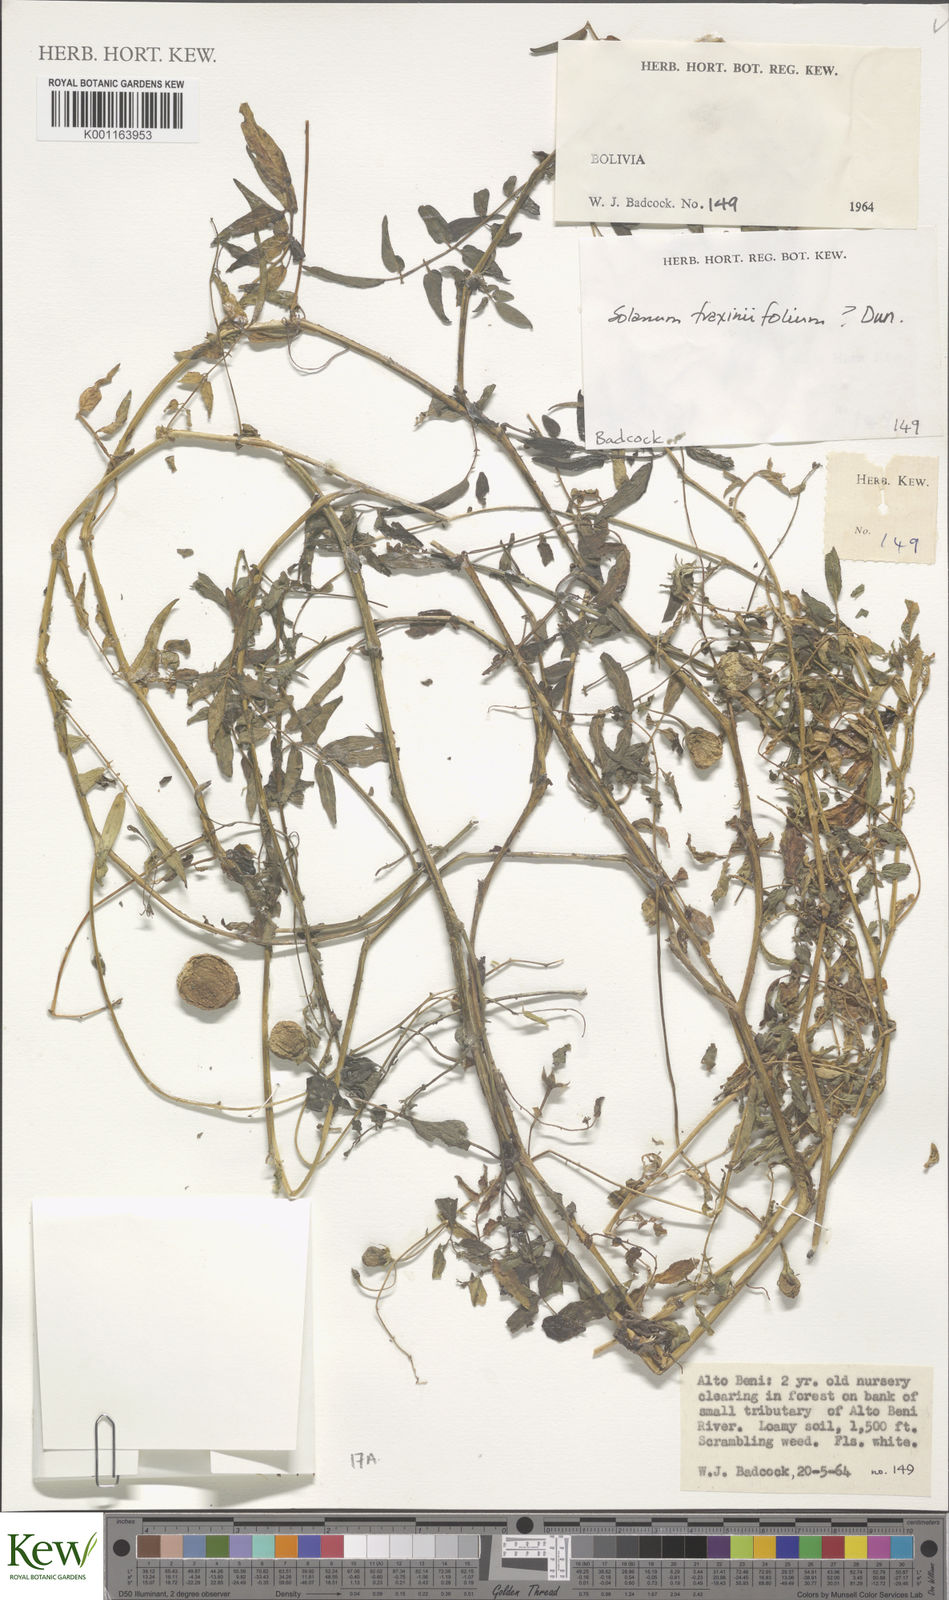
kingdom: Plantae
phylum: Tracheophyta
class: Magnoliopsida
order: Solanales
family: Solanaceae
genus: Solanum
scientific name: Solanum fraxinifolium
